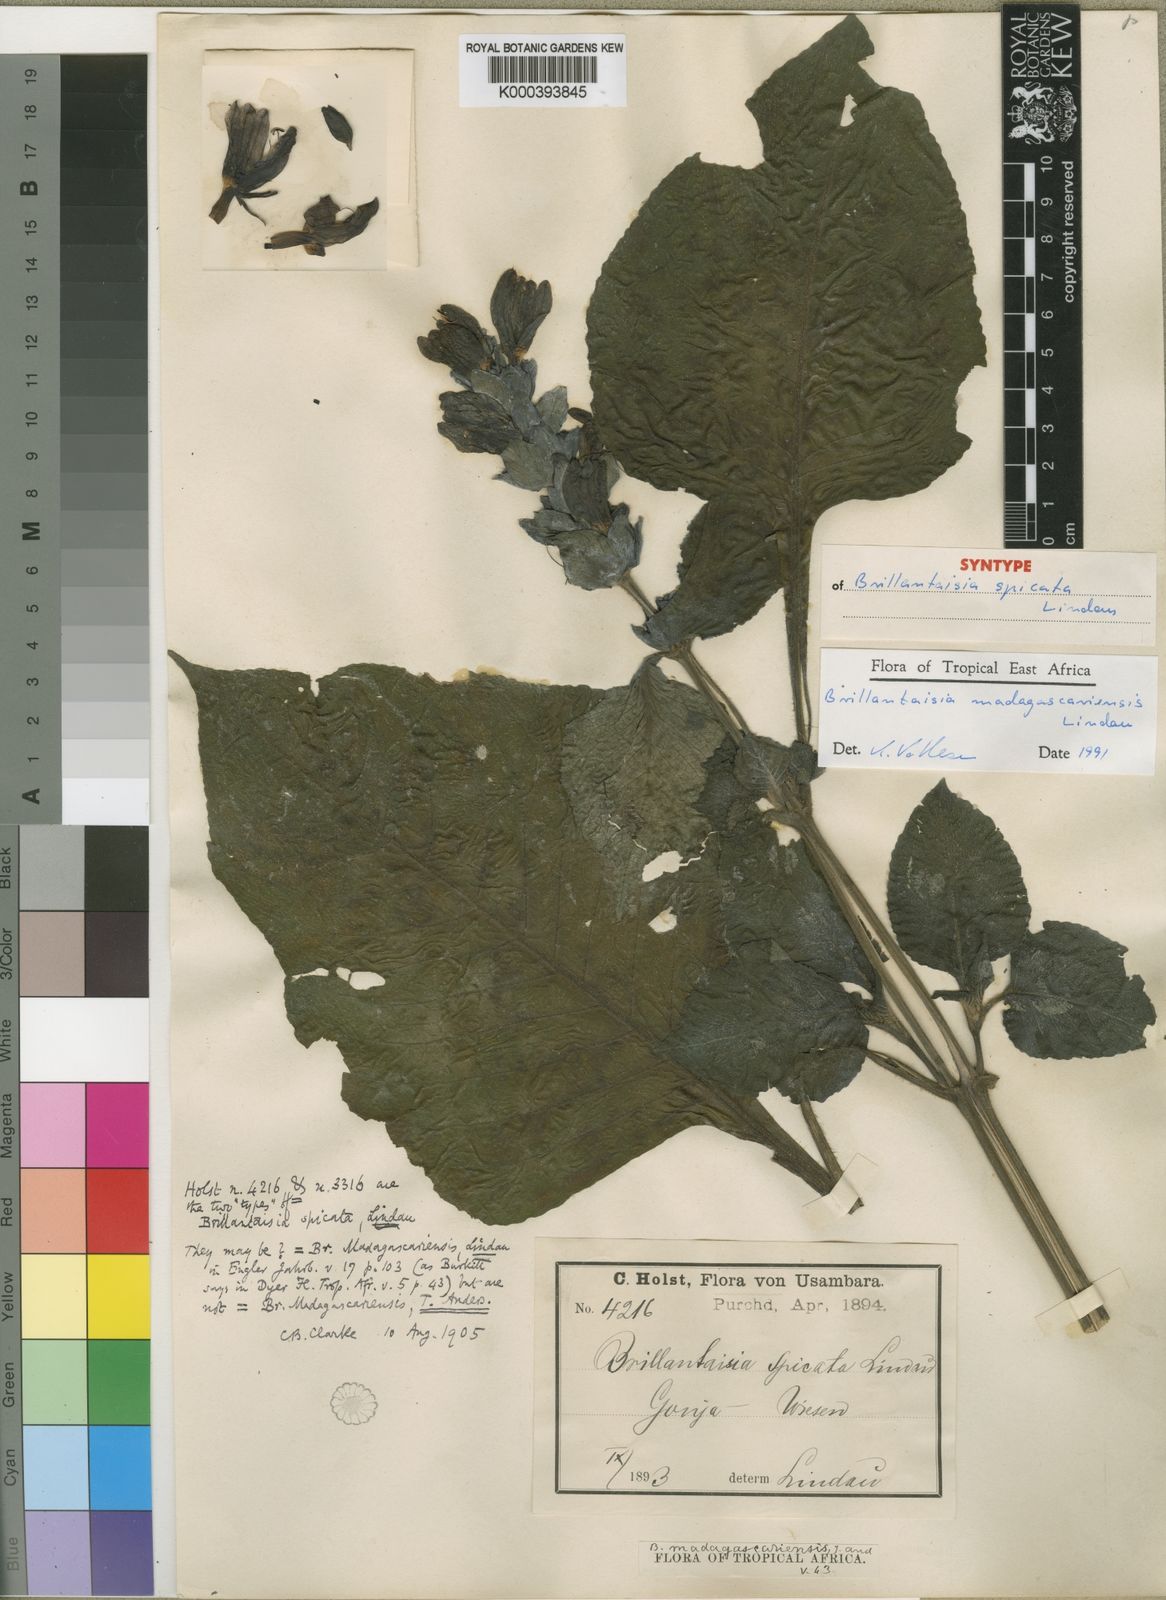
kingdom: Plantae
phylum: Tracheophyta
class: Magnoliopsida
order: Lamiales
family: Acanthaceae
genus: Brillantaisia
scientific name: Brillantaisia madagascariensis
